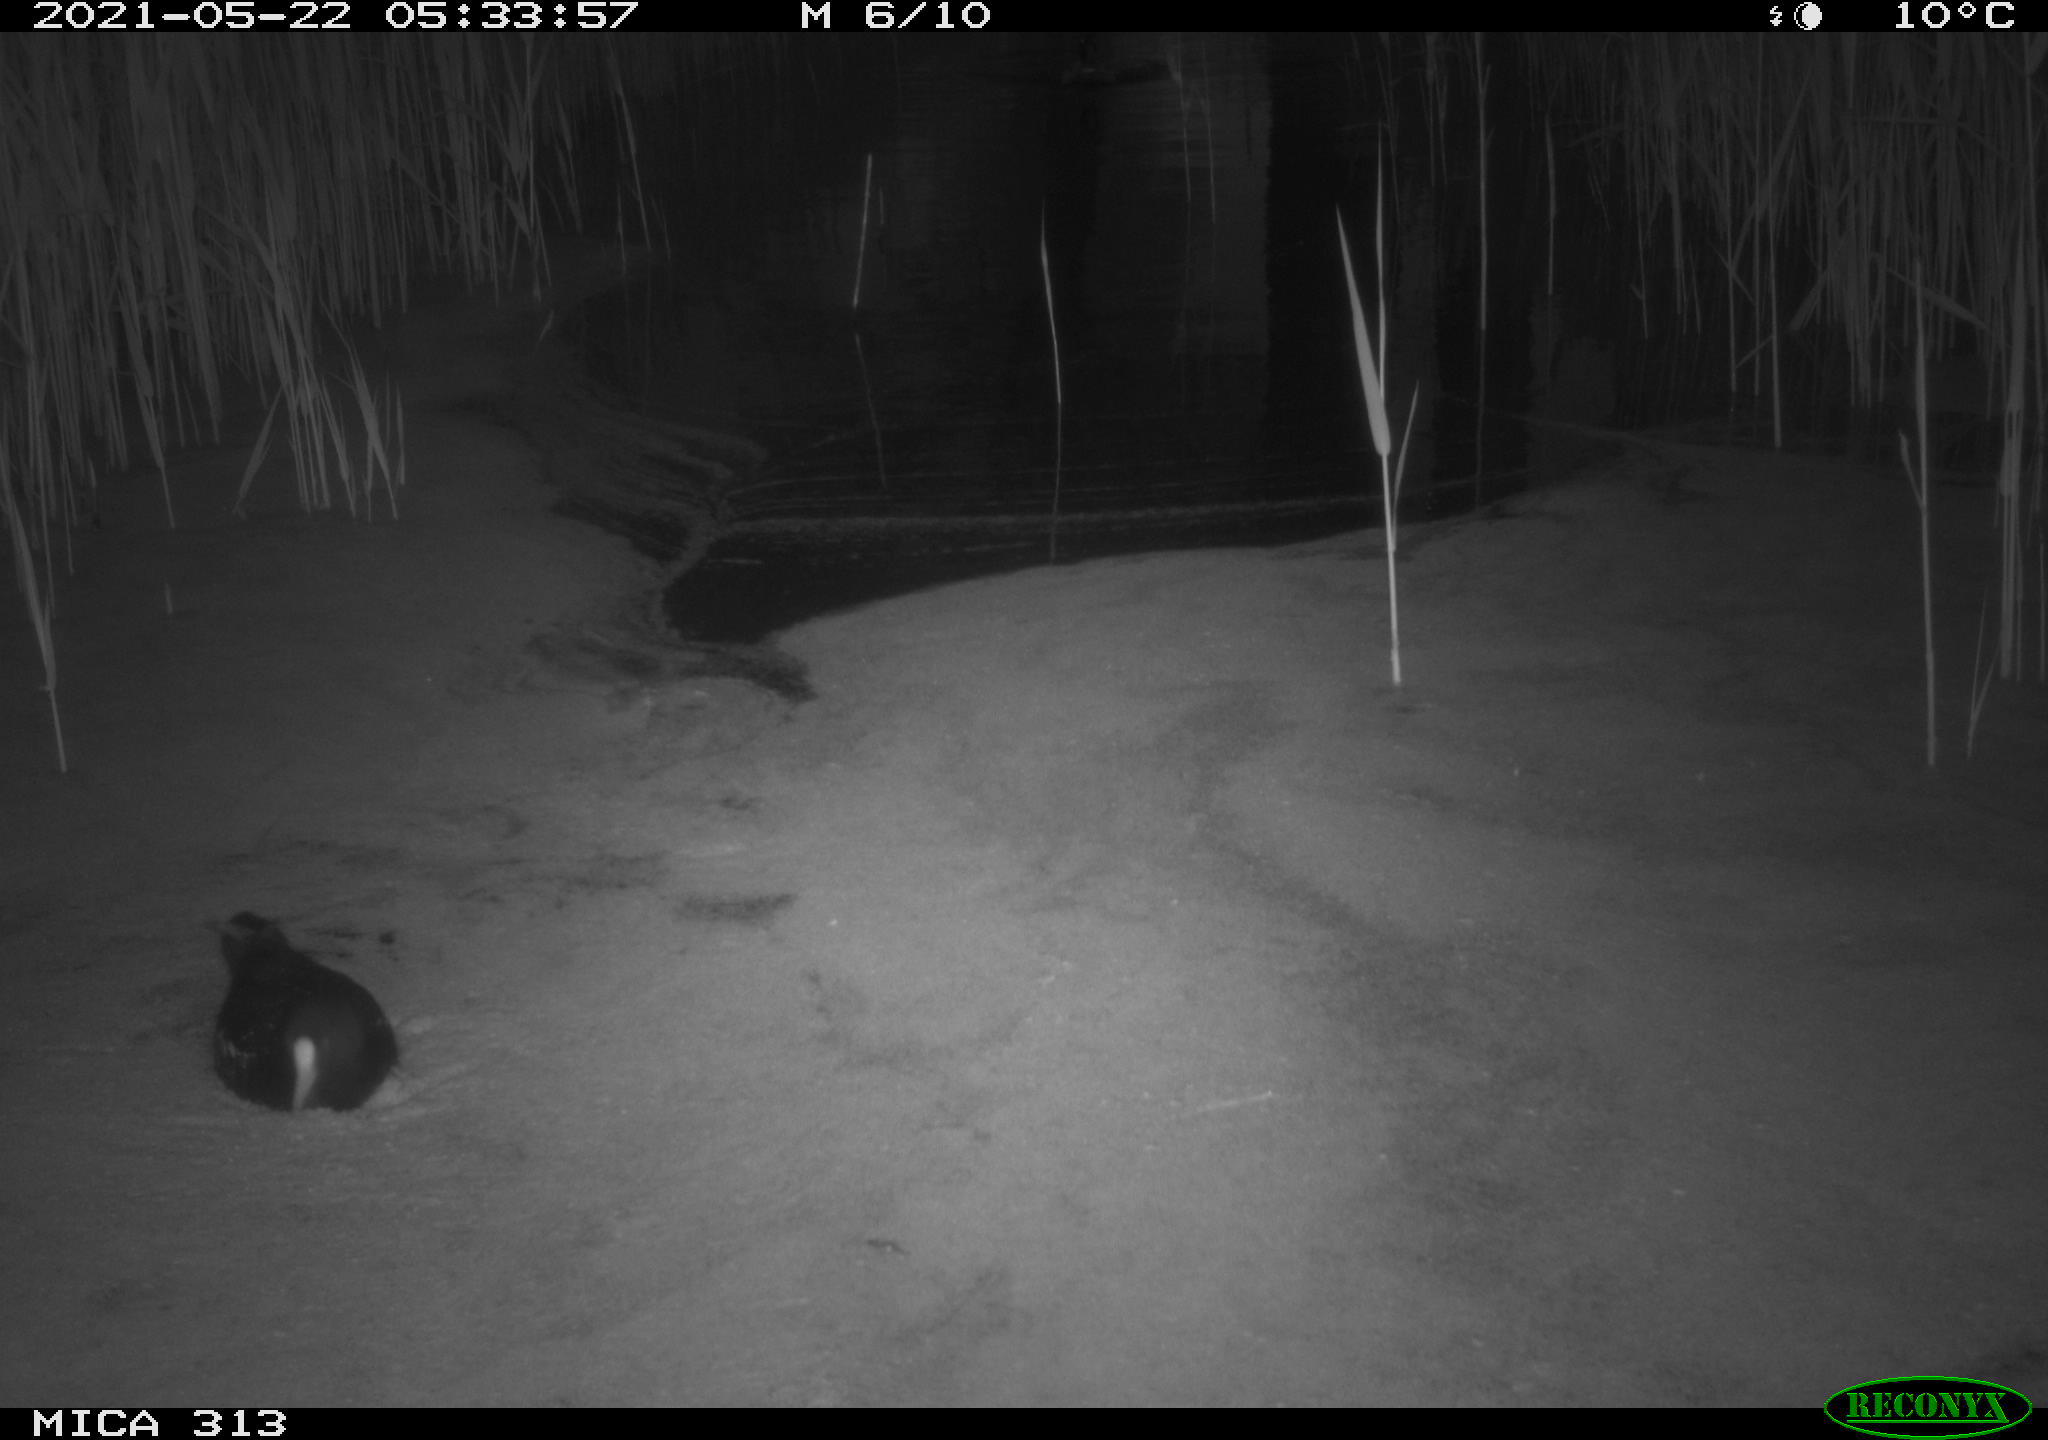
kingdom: Animalia
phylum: Chordata
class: Aves
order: Gruiformes
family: Rallidae
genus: Gallinula
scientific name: Gallinula chloropus
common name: Common moorhen
